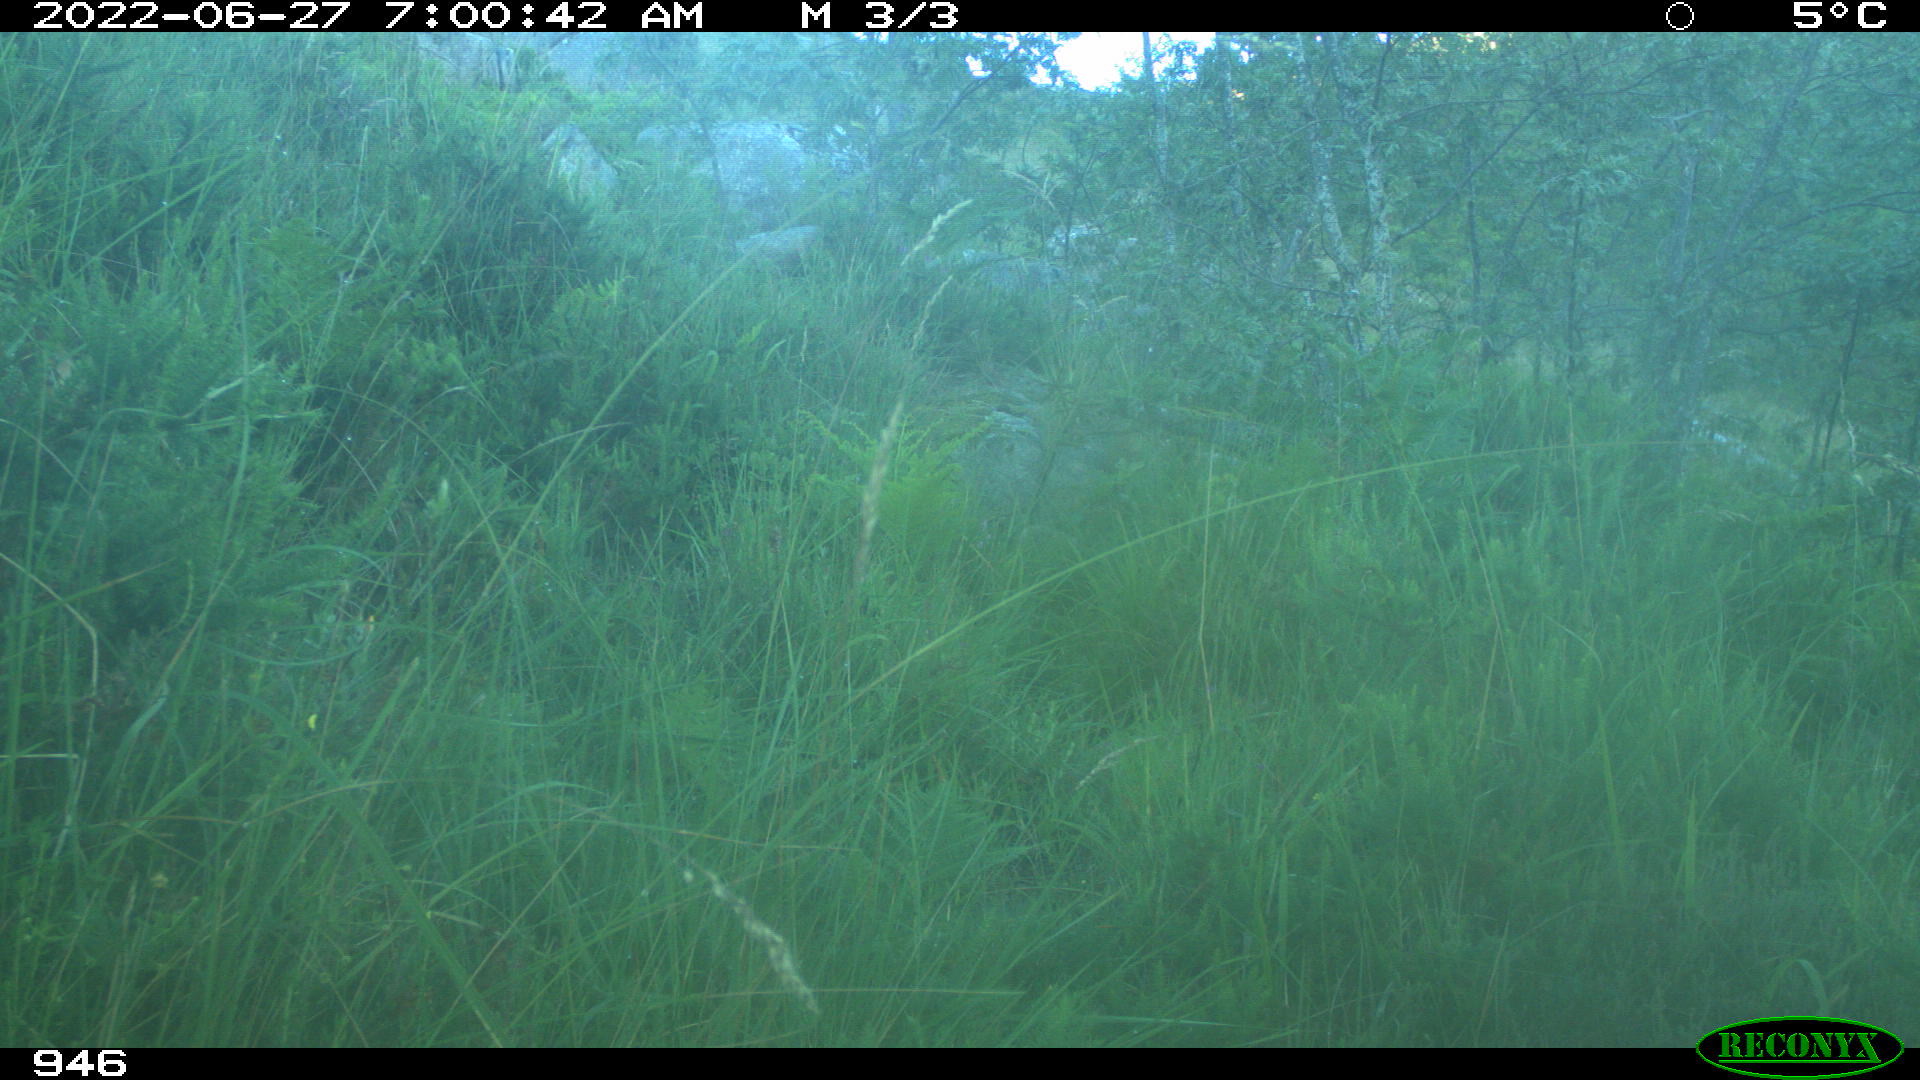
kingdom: Animalia
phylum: Chordata
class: Mammalia
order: Artiodactyla
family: Cervidae
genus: Capreolus
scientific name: Capreolus capreolus
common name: Western roe deer
